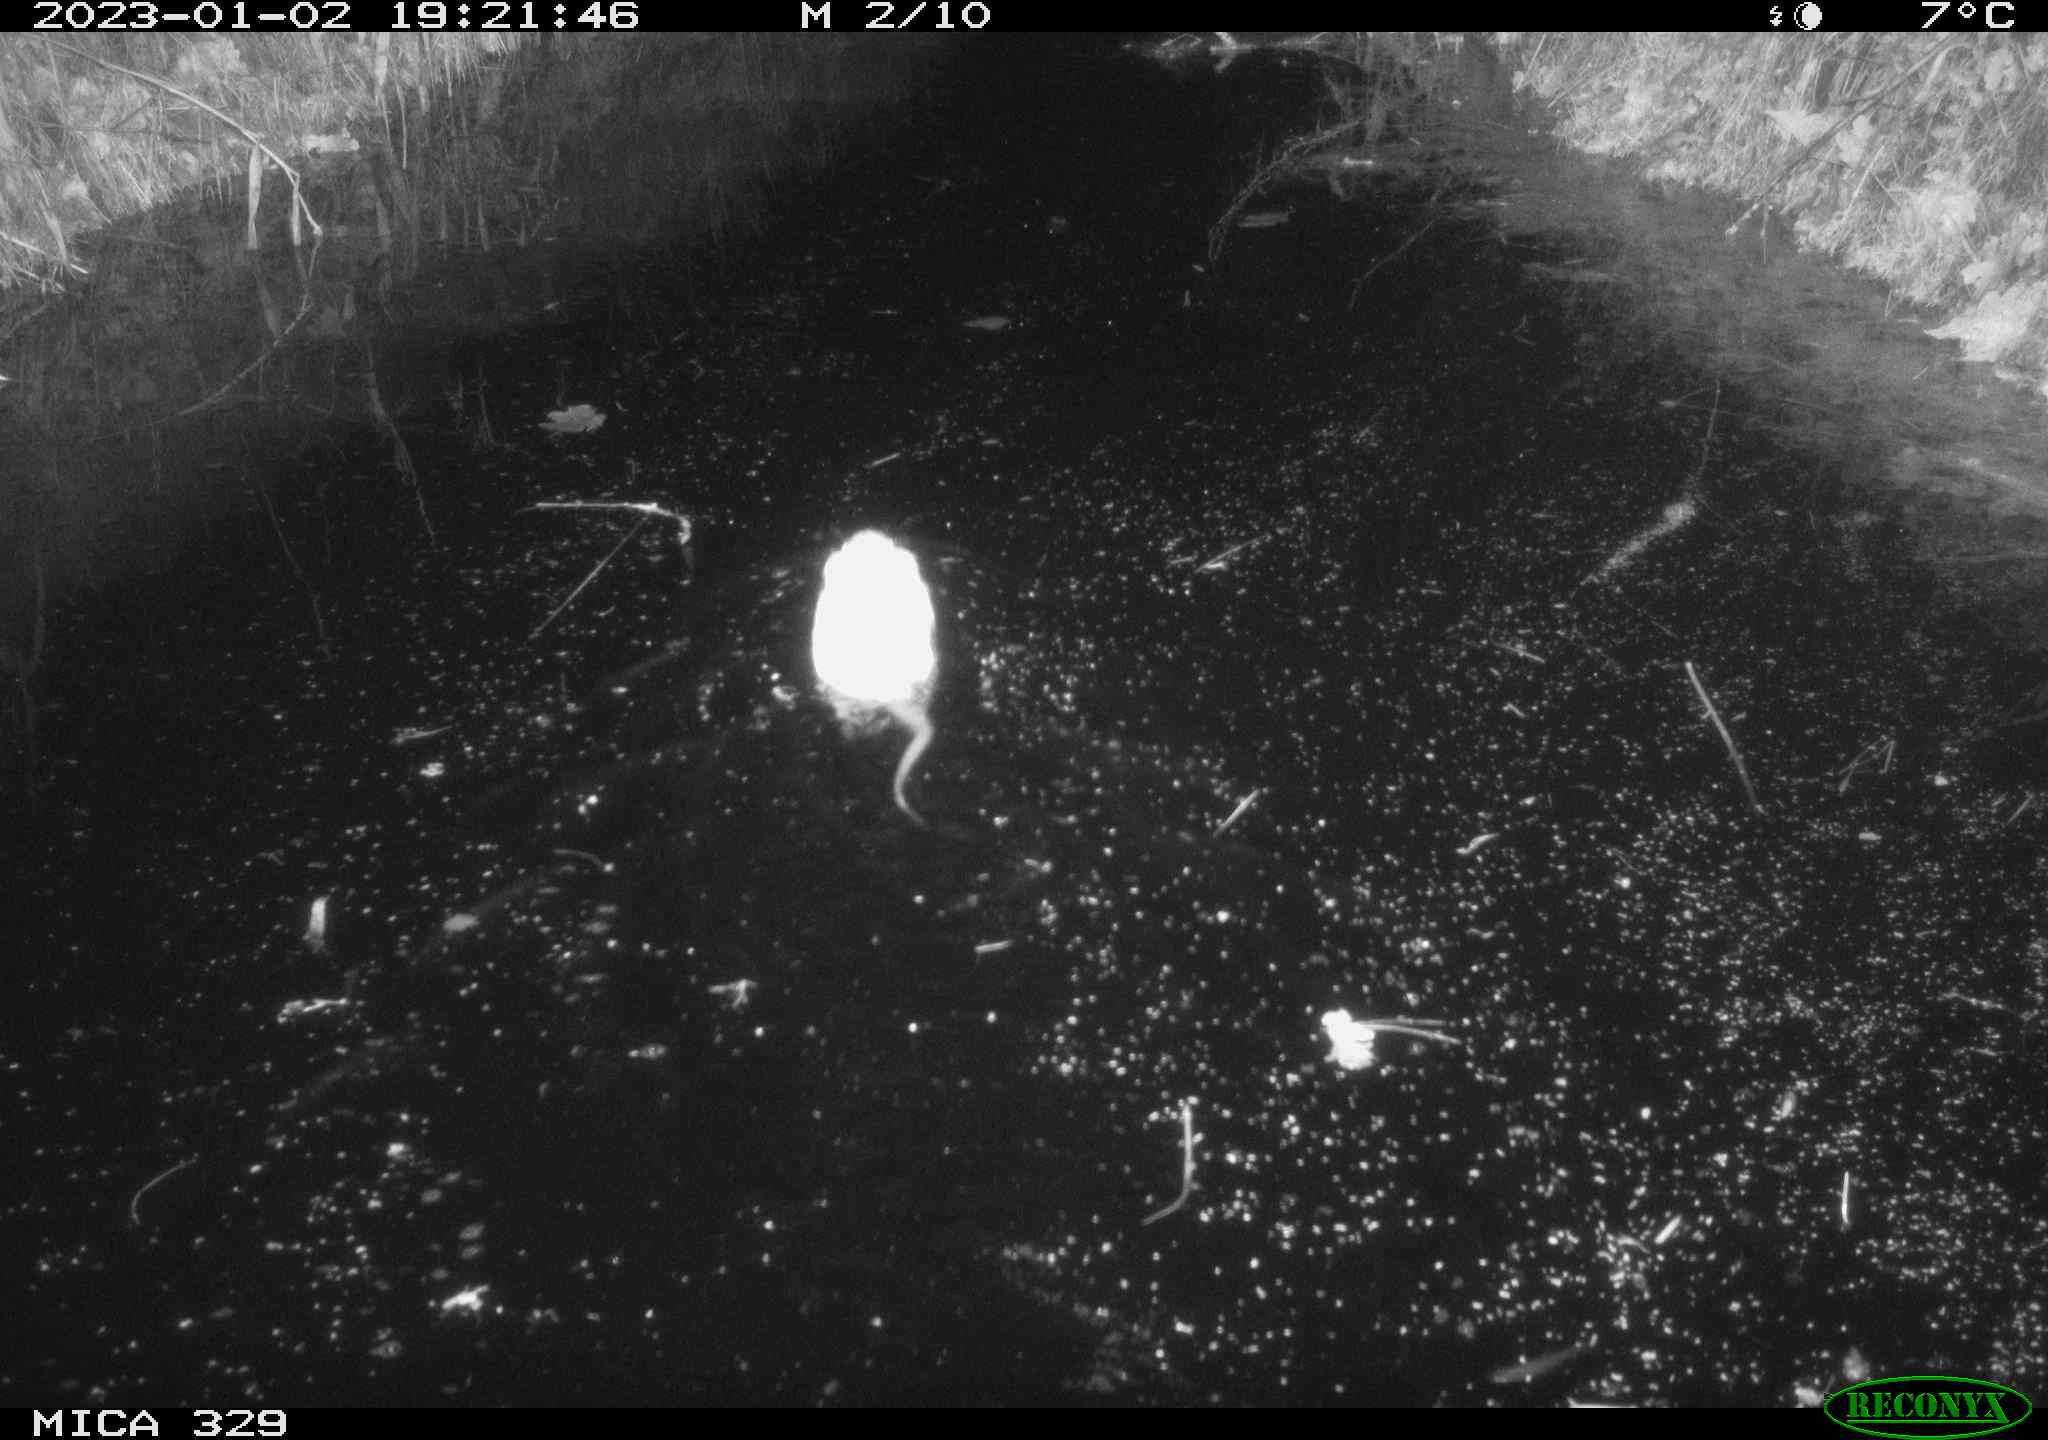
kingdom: Animalia
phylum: Chordata
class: Mammalia
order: Rodentia
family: Cricetidae
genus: Ondatra
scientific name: Ondatra zibethicus
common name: Muskrat
